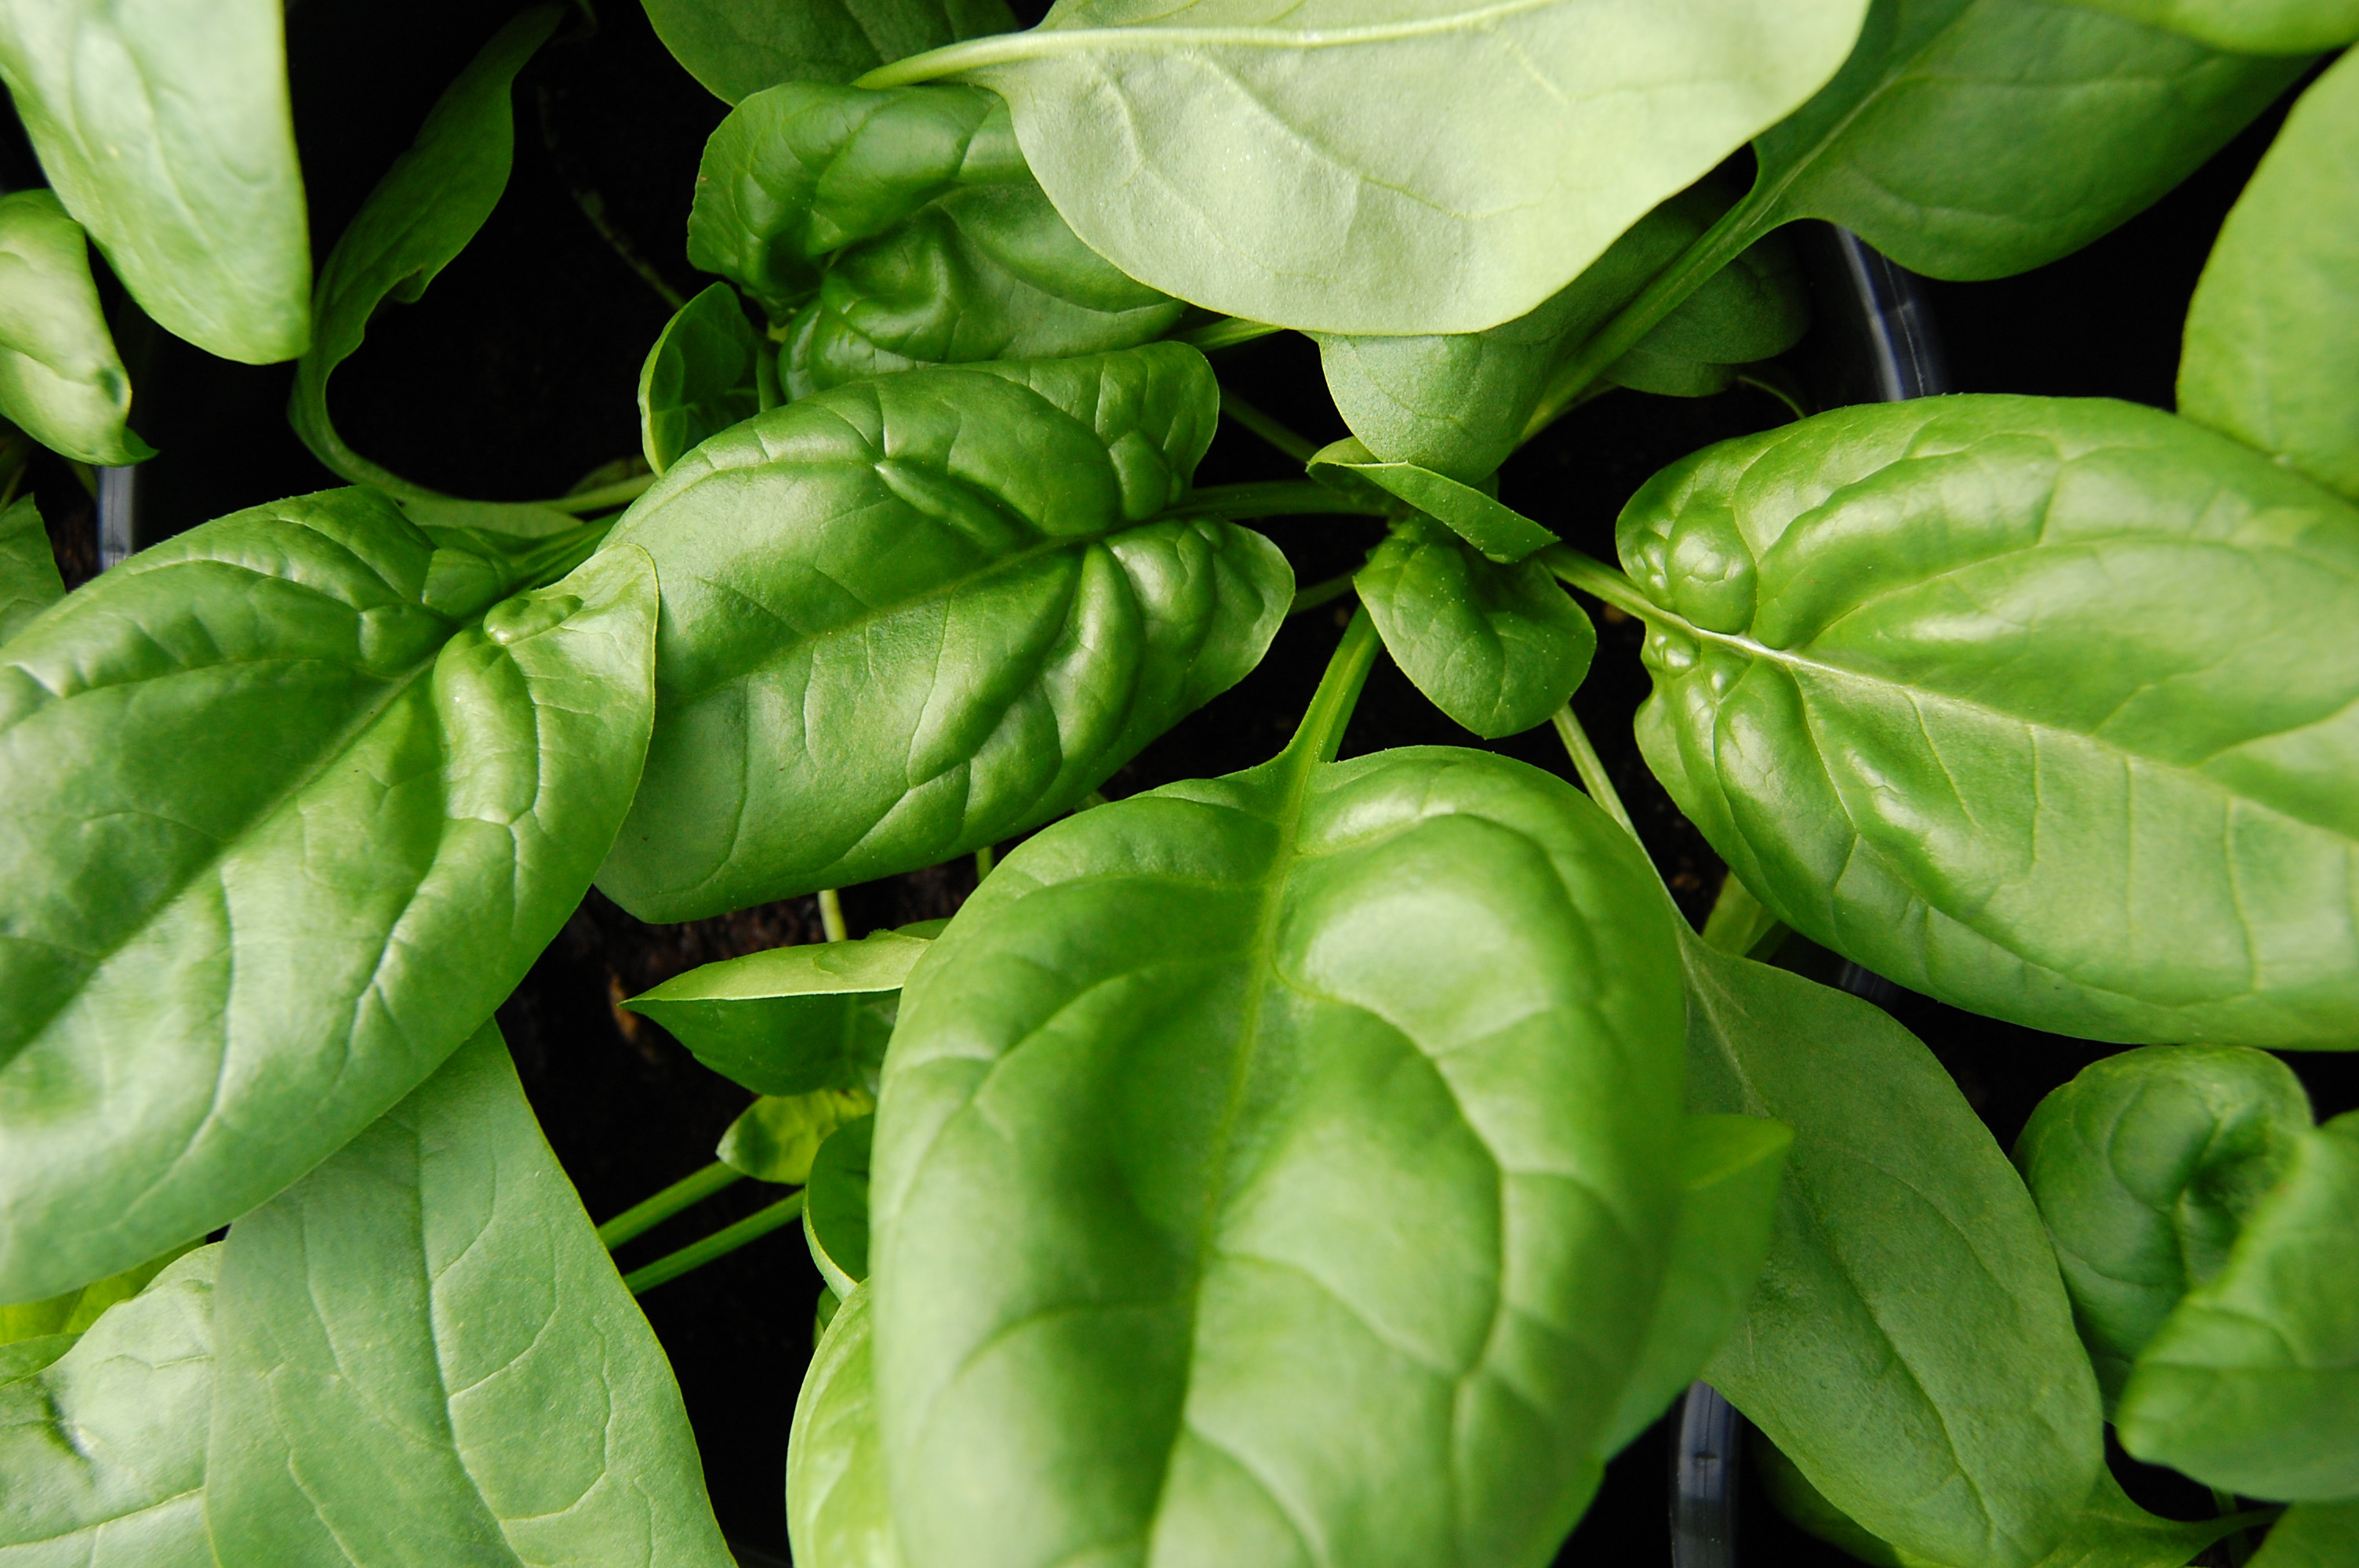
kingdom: Plantae
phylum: Tracheophyta
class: Magnoliopsida
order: Caryophyllales
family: Amaranthaceae
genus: Spinacia
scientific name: Spinacia oleracea
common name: Spinach
